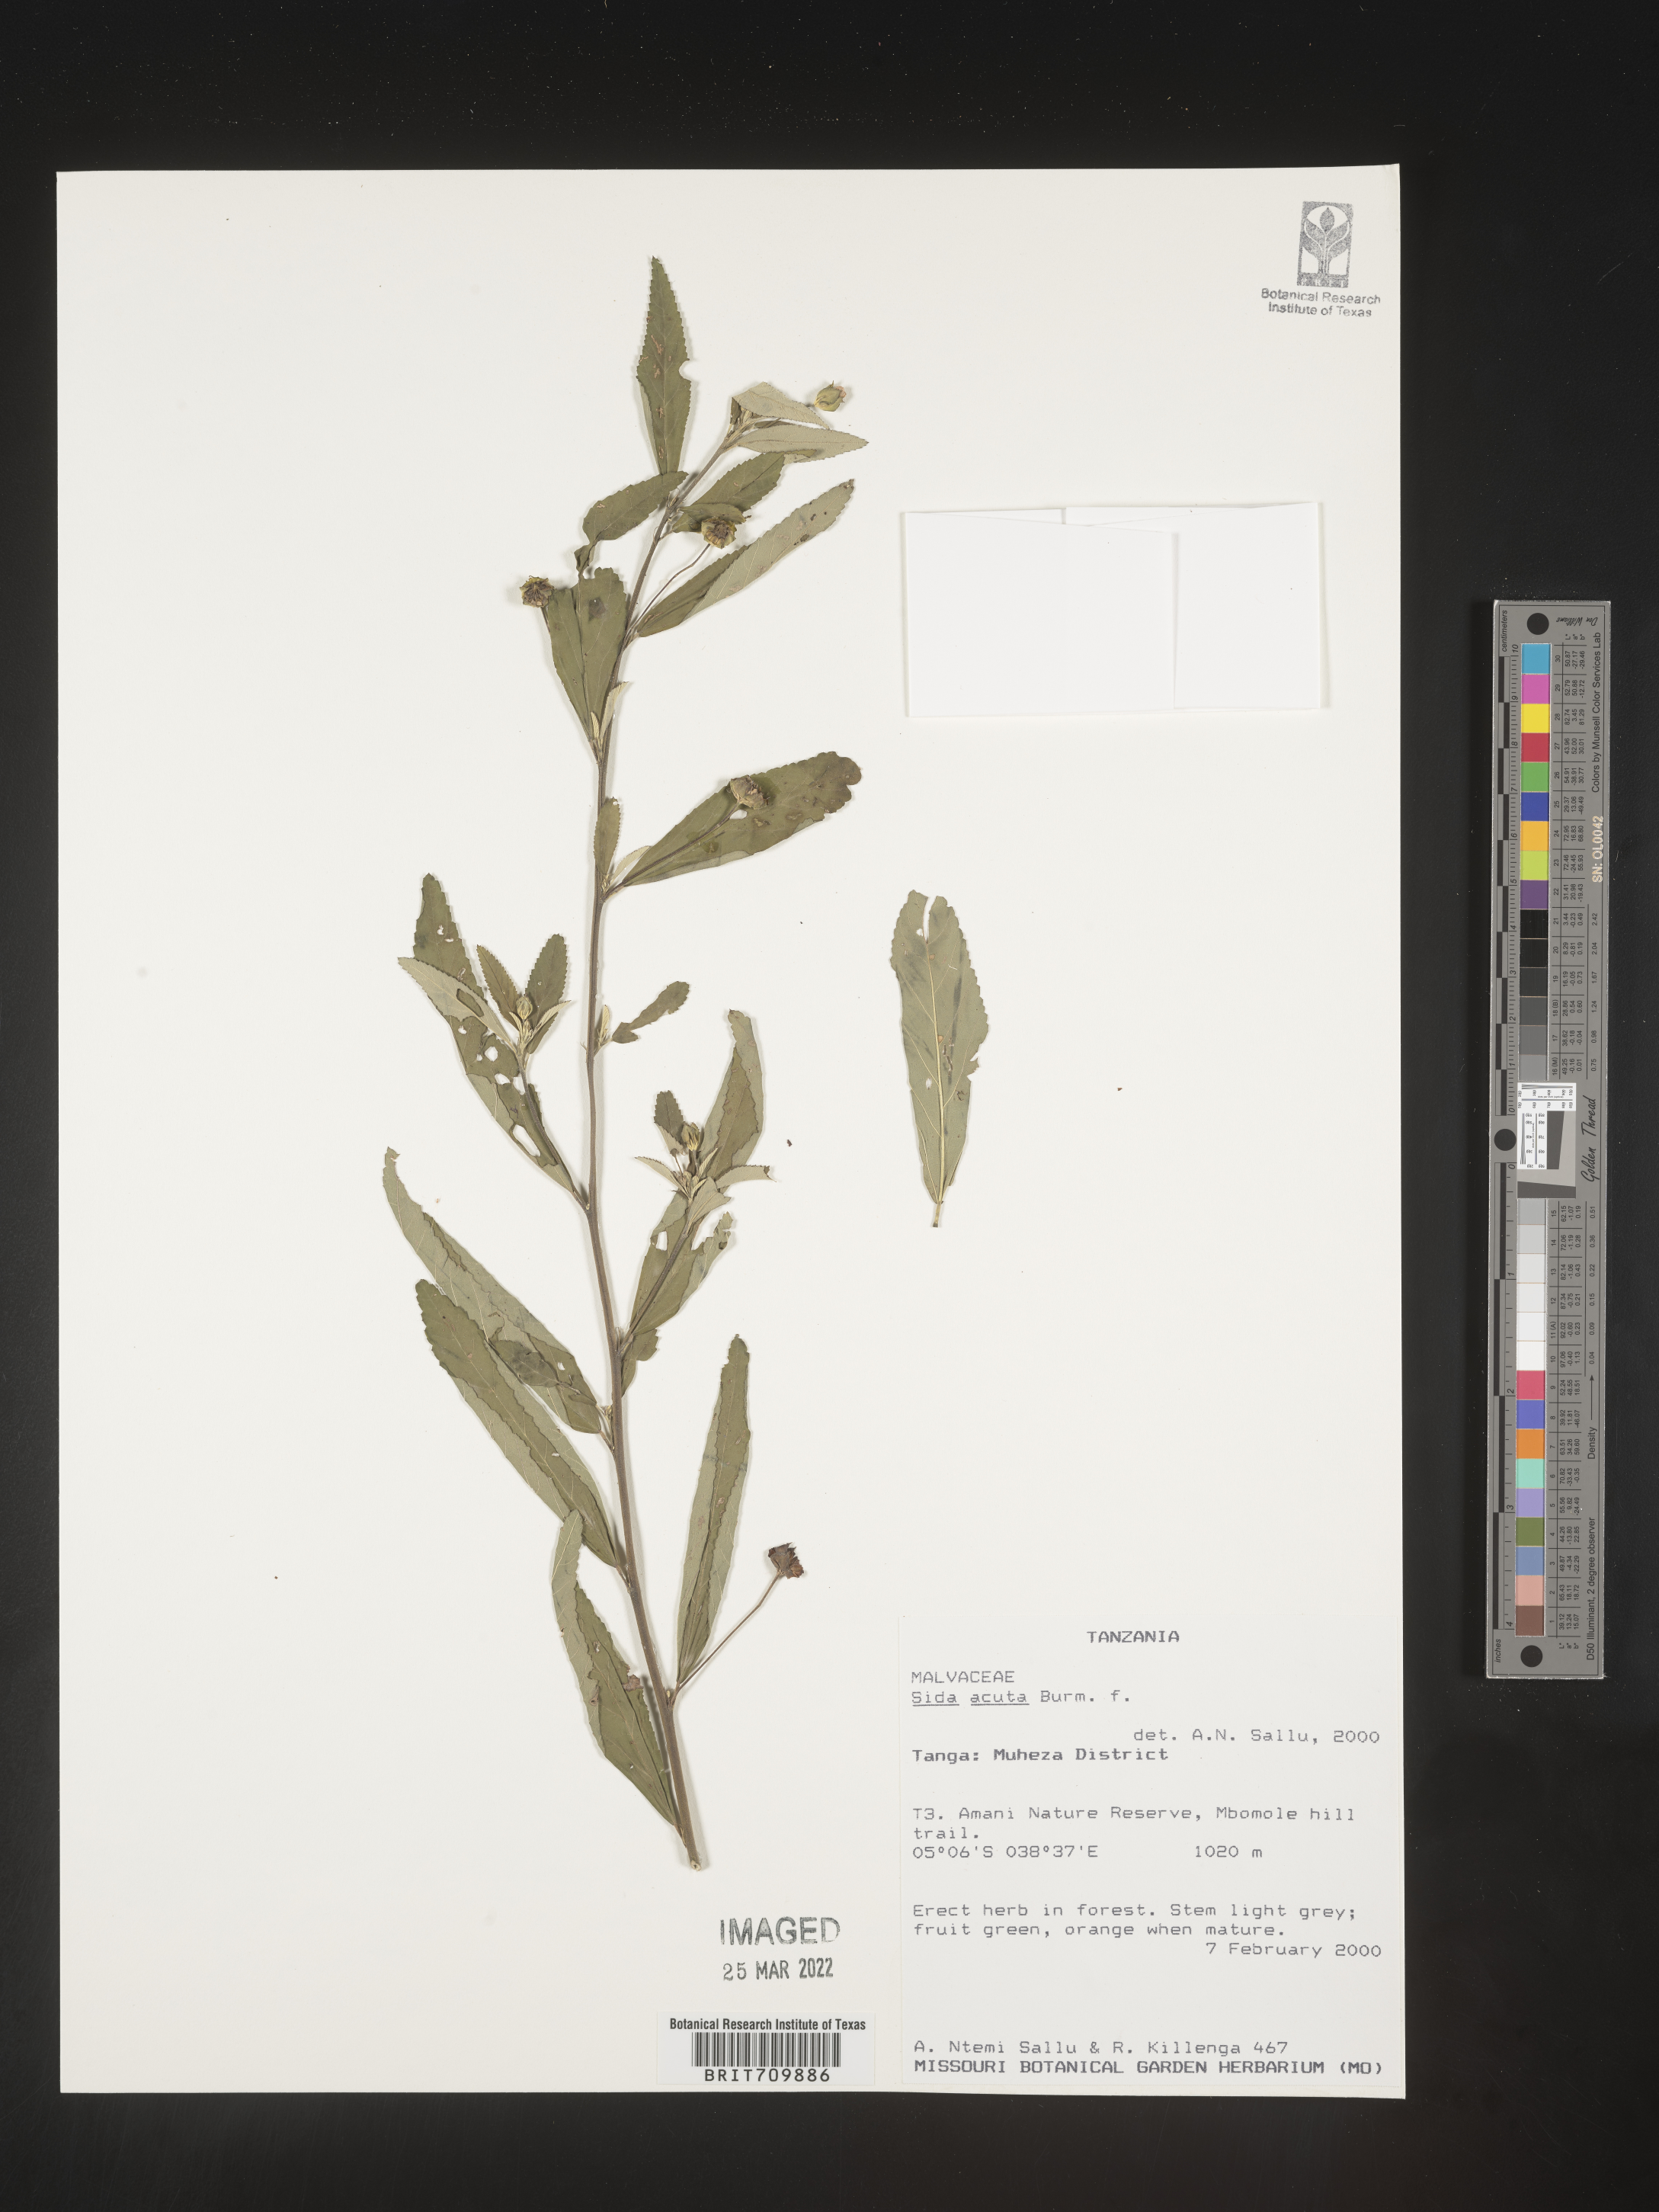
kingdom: Plantae
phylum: Tracheophyta
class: Magnoliopsida
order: Malvales
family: Malvaceae
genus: Sida
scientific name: Sida
